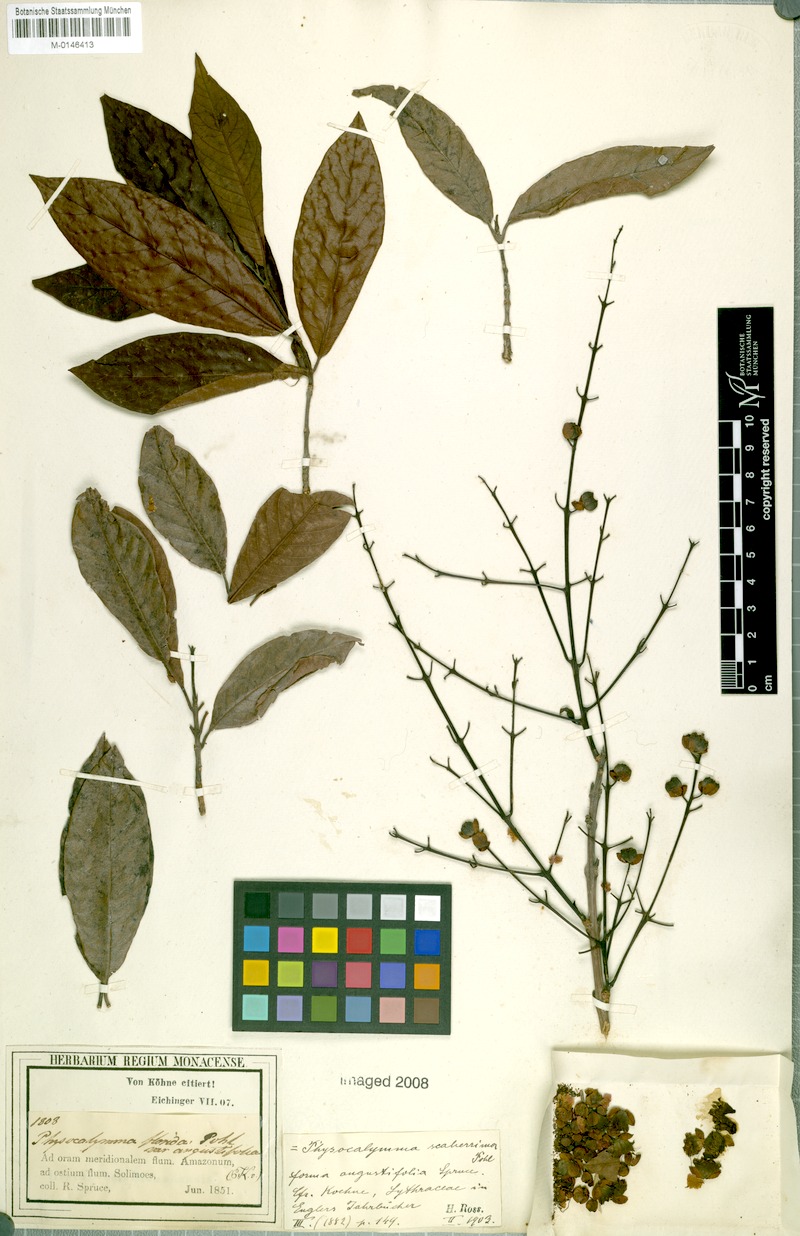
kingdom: Plantae
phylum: Tracheophyta
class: Magnoliopsida
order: Myrtales
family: Lythraceae
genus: Physocalymma
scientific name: Physocalymma scaberrimum
